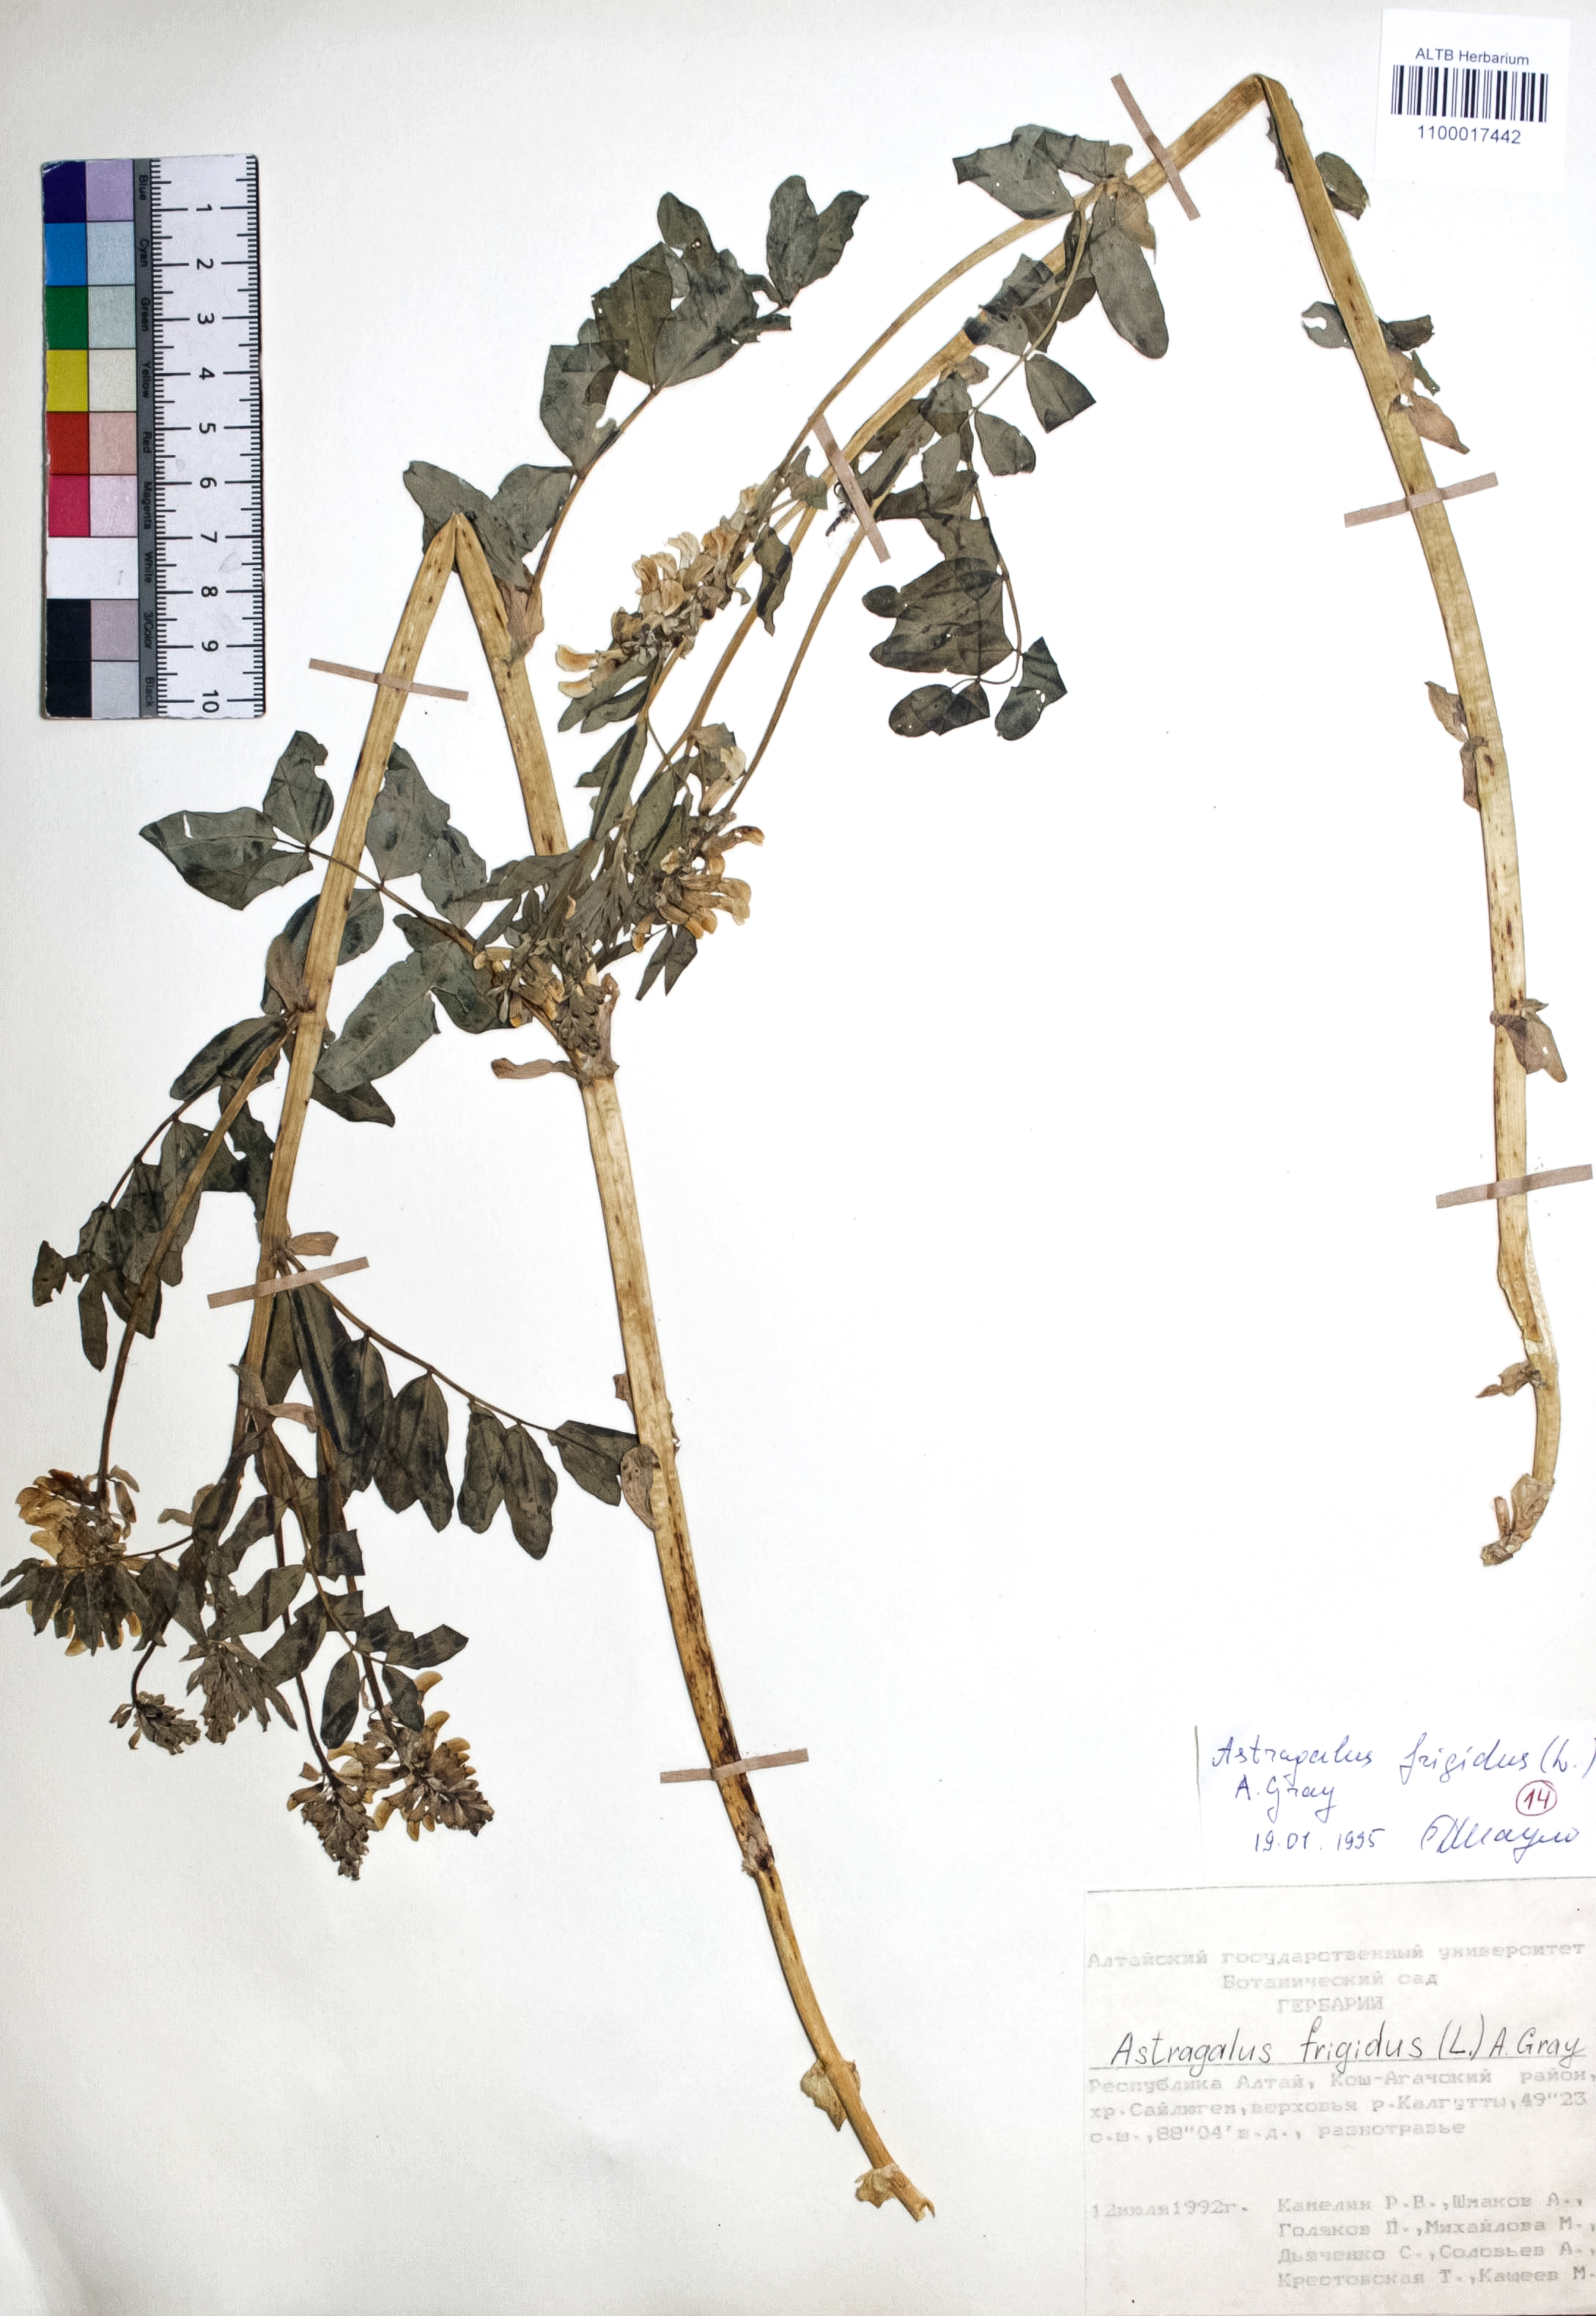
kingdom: Plantae
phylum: Tracheophyta
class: Magnoliopsida
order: Fabales
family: Fabaceae
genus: Astragalus
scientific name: Astragalus frigidus
